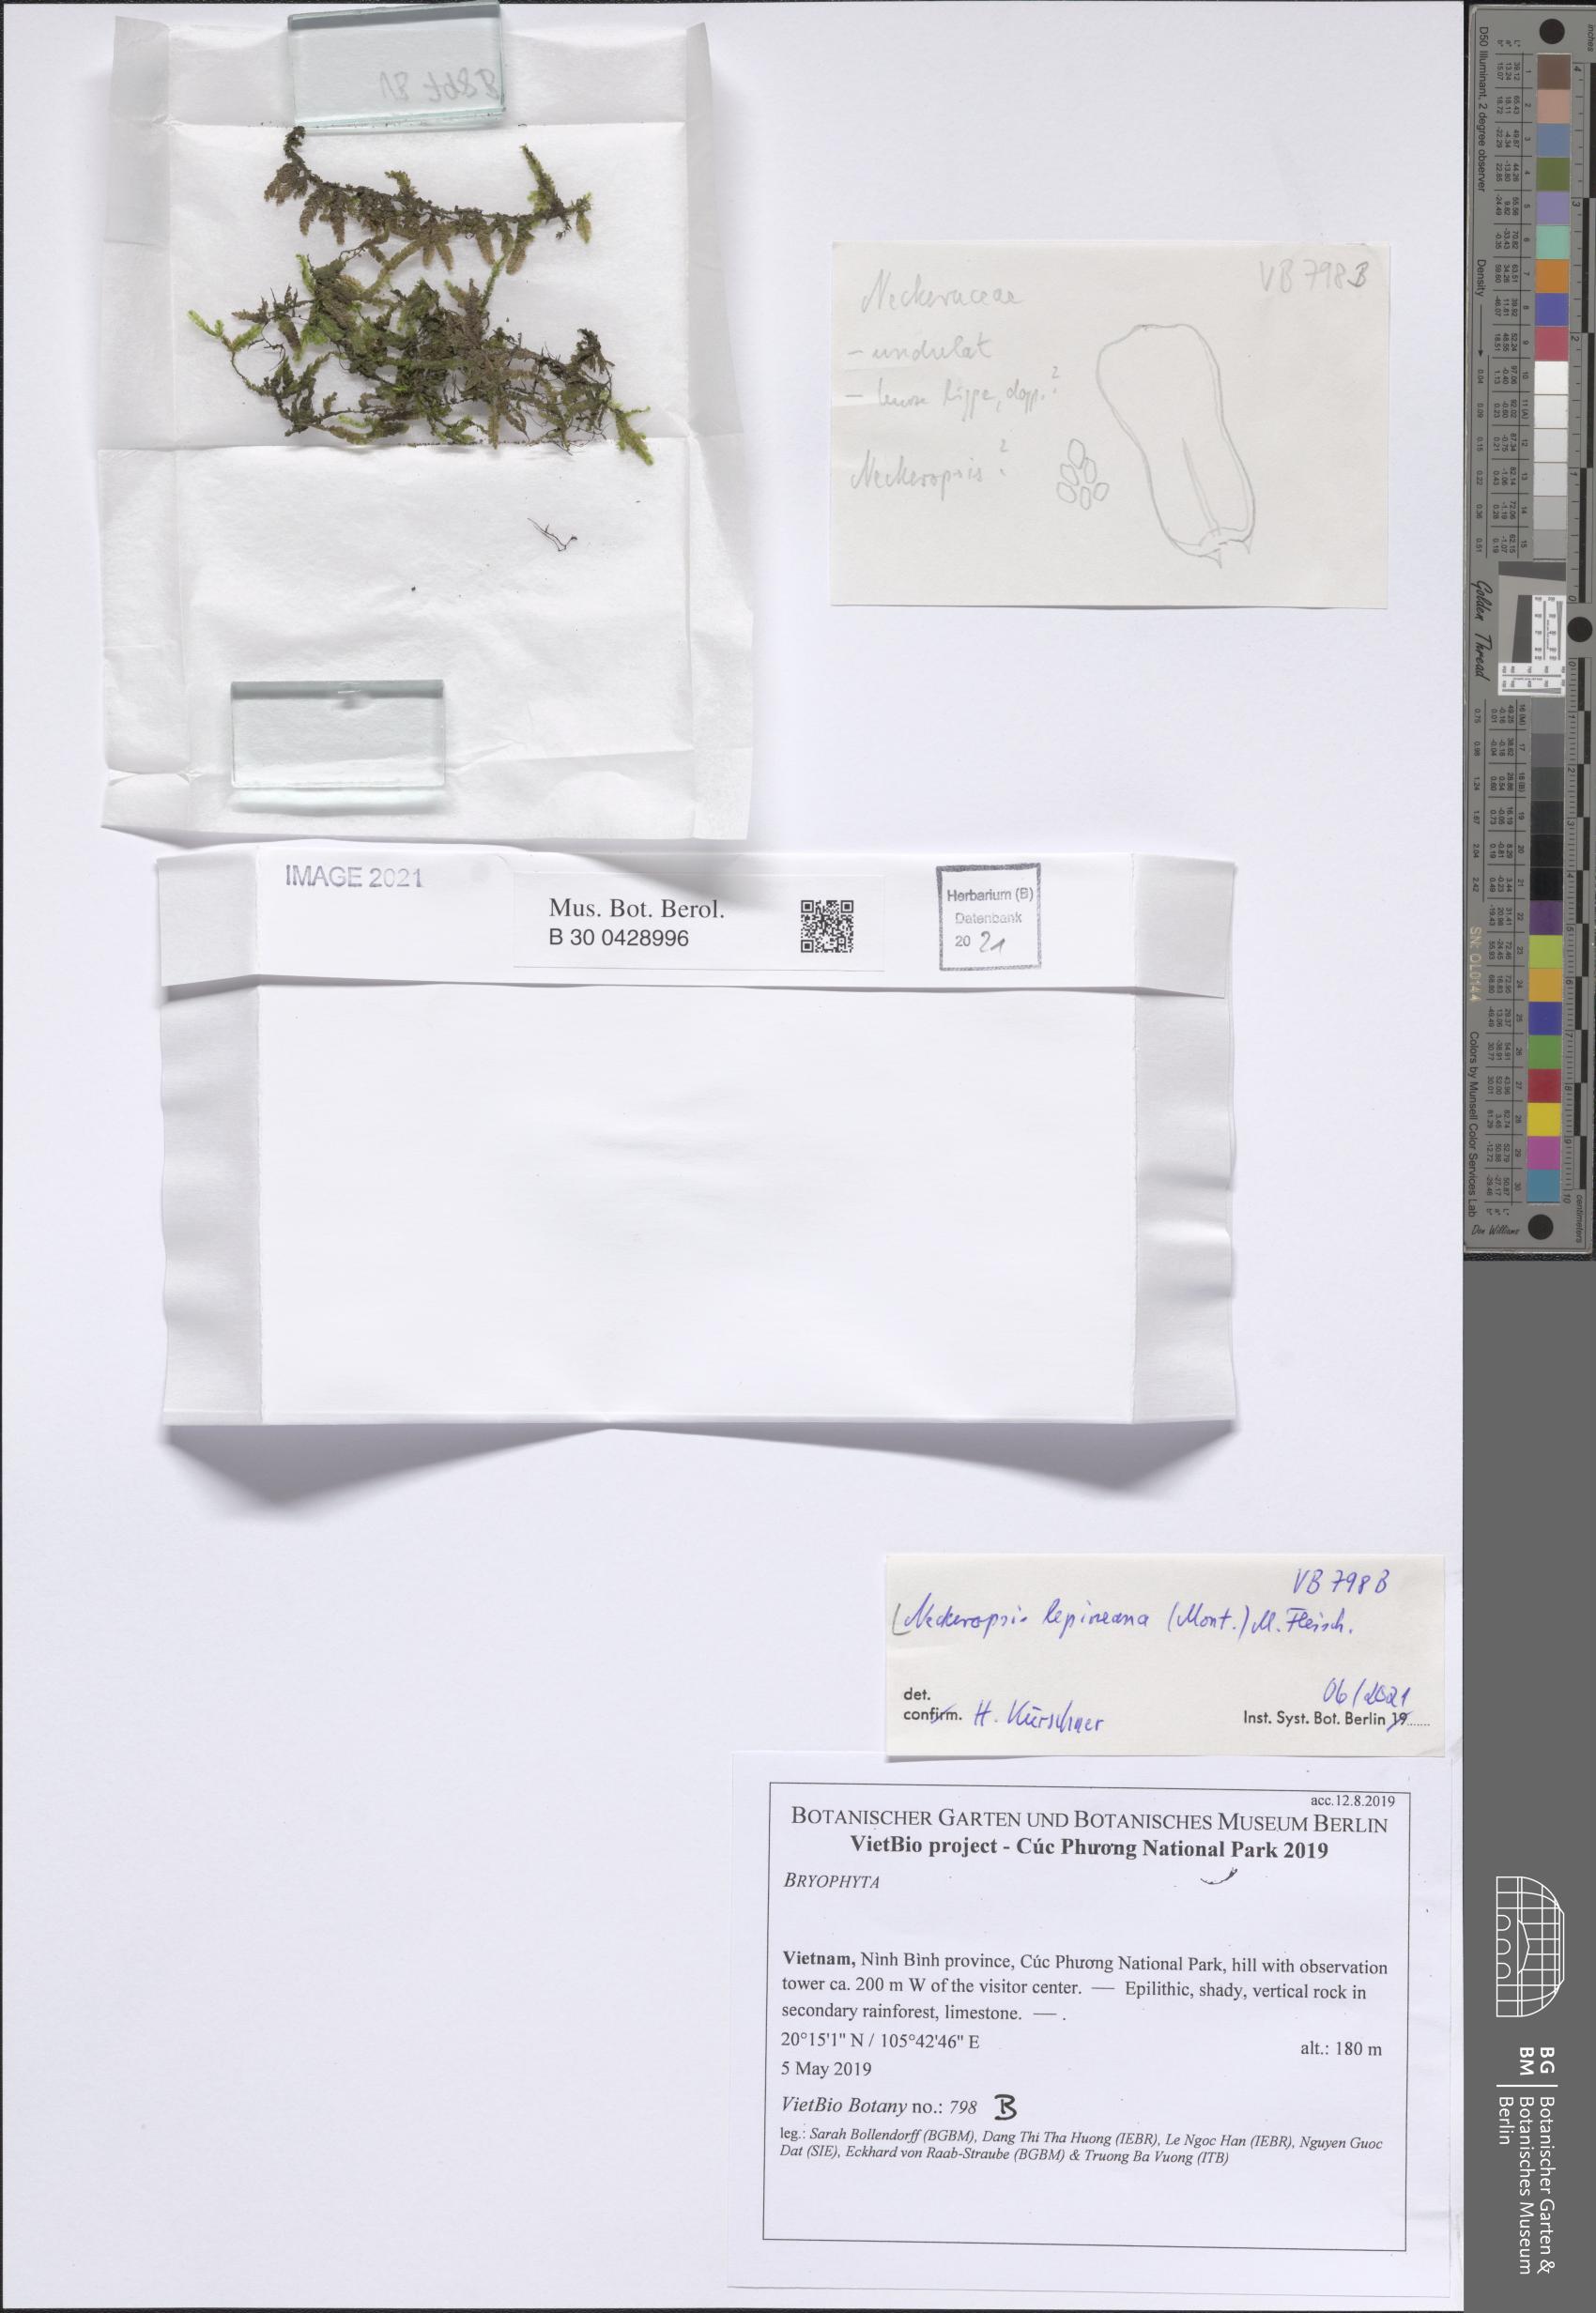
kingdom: Plantae
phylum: Bryophyta
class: Bryopsida
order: Hypnales
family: Neckeraceae
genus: Neckeromnion
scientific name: Neckeromnion lepineanum
